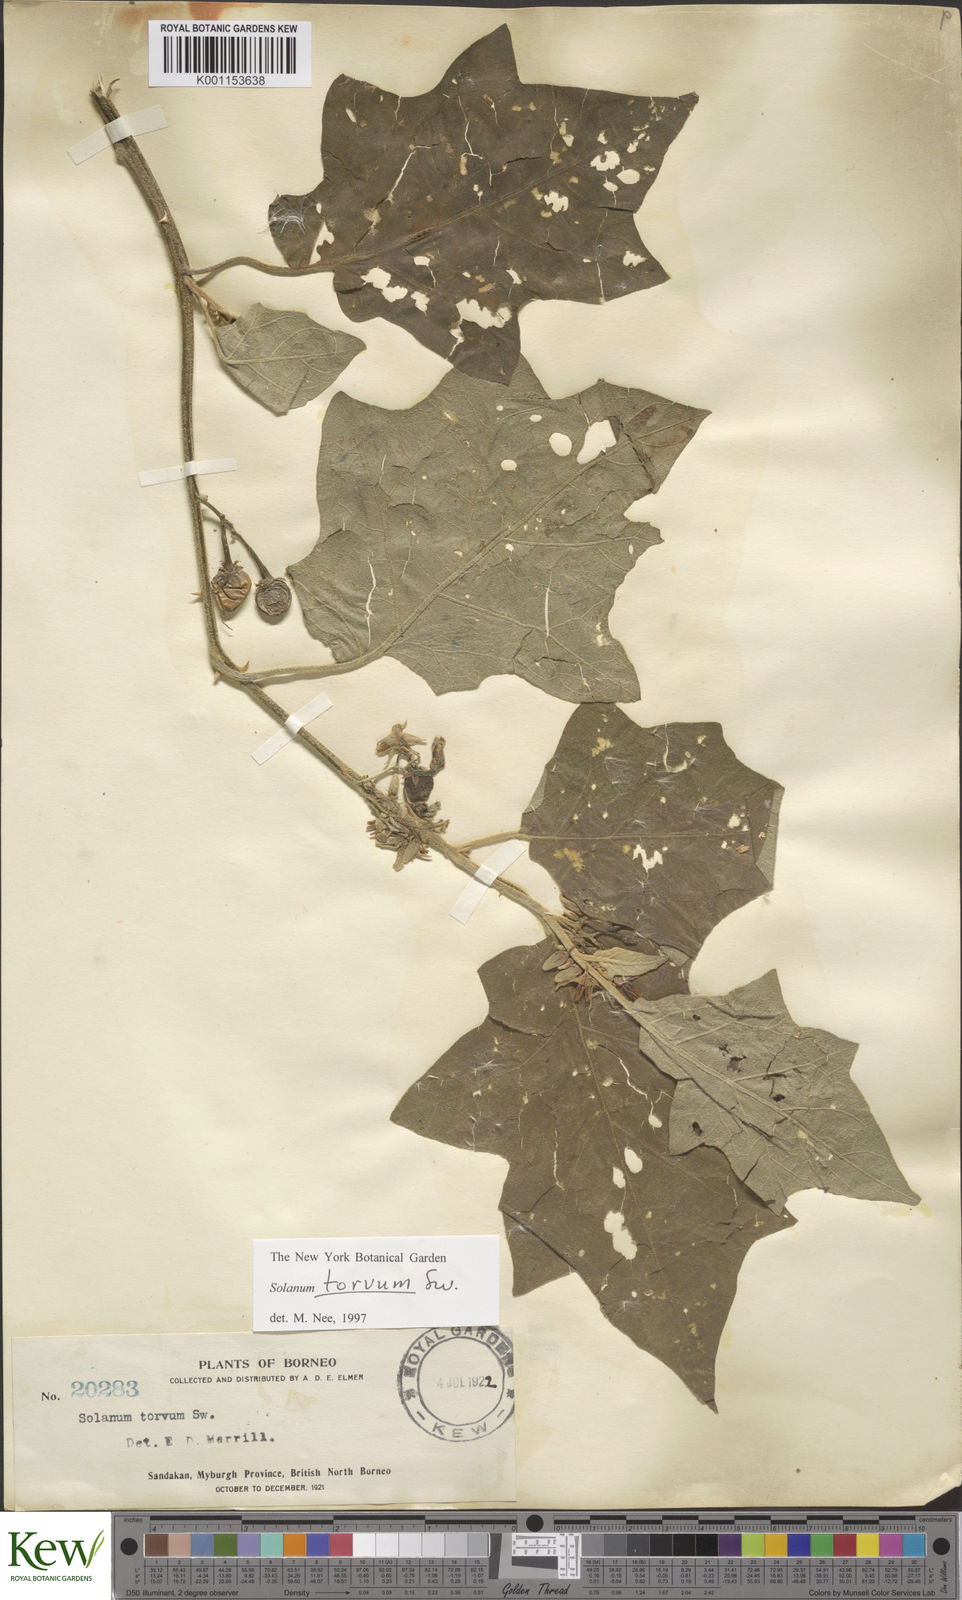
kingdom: Plantae
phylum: Tracheophyta
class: Magnoliopsida
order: Solanales
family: Solanaceae
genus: Solanum
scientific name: Solanum torvum
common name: Turkey berry
